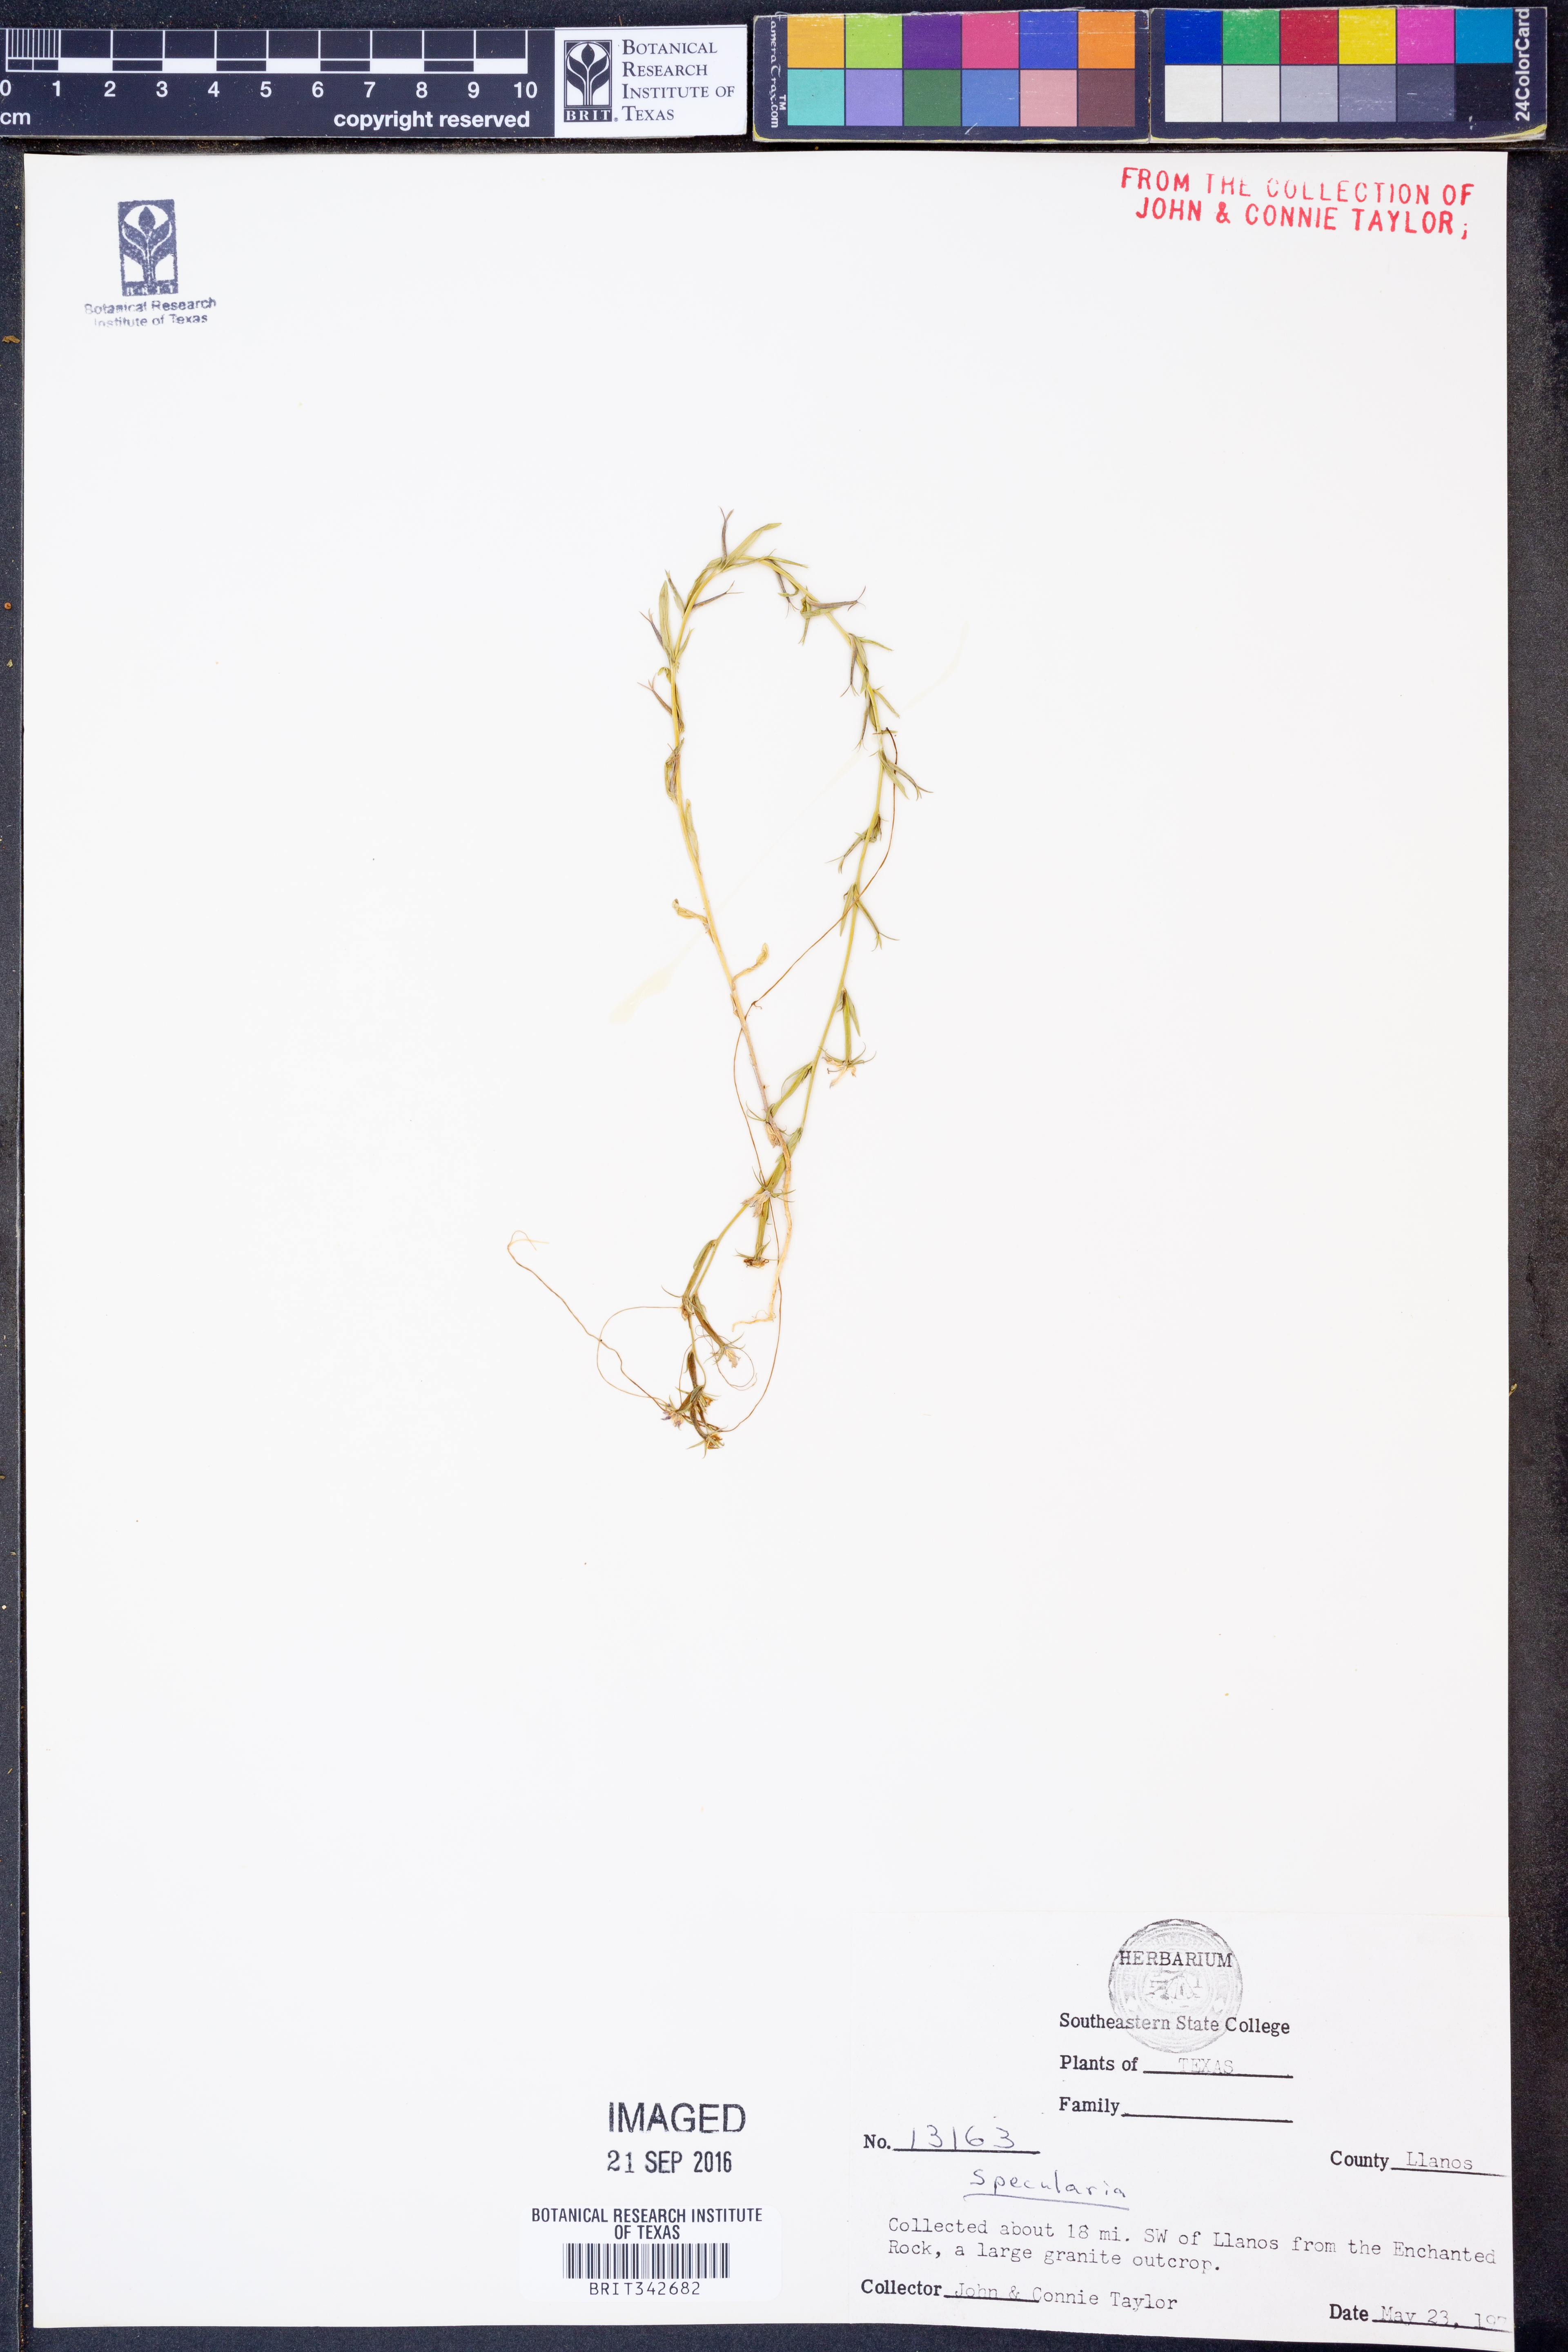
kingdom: Plantae
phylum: Tracheophyta
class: Magnoliopsida
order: Asterales
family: Campanulaceae
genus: Specularia
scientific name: Specularia
